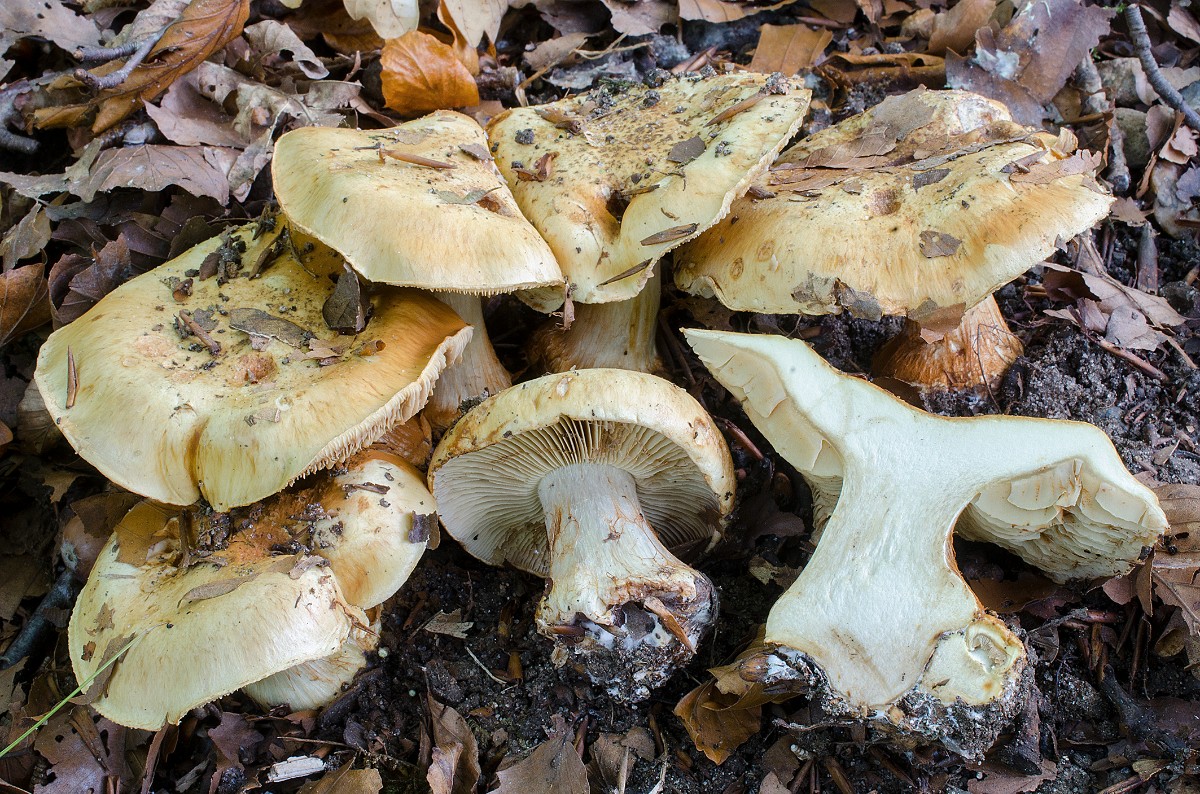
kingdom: Fungi
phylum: Basidiomycota
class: Agaricomycetes
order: Agaricales
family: Cortinariaceae
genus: Cortinarius
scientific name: Cortinarius koldingensis
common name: strågul slørhat
